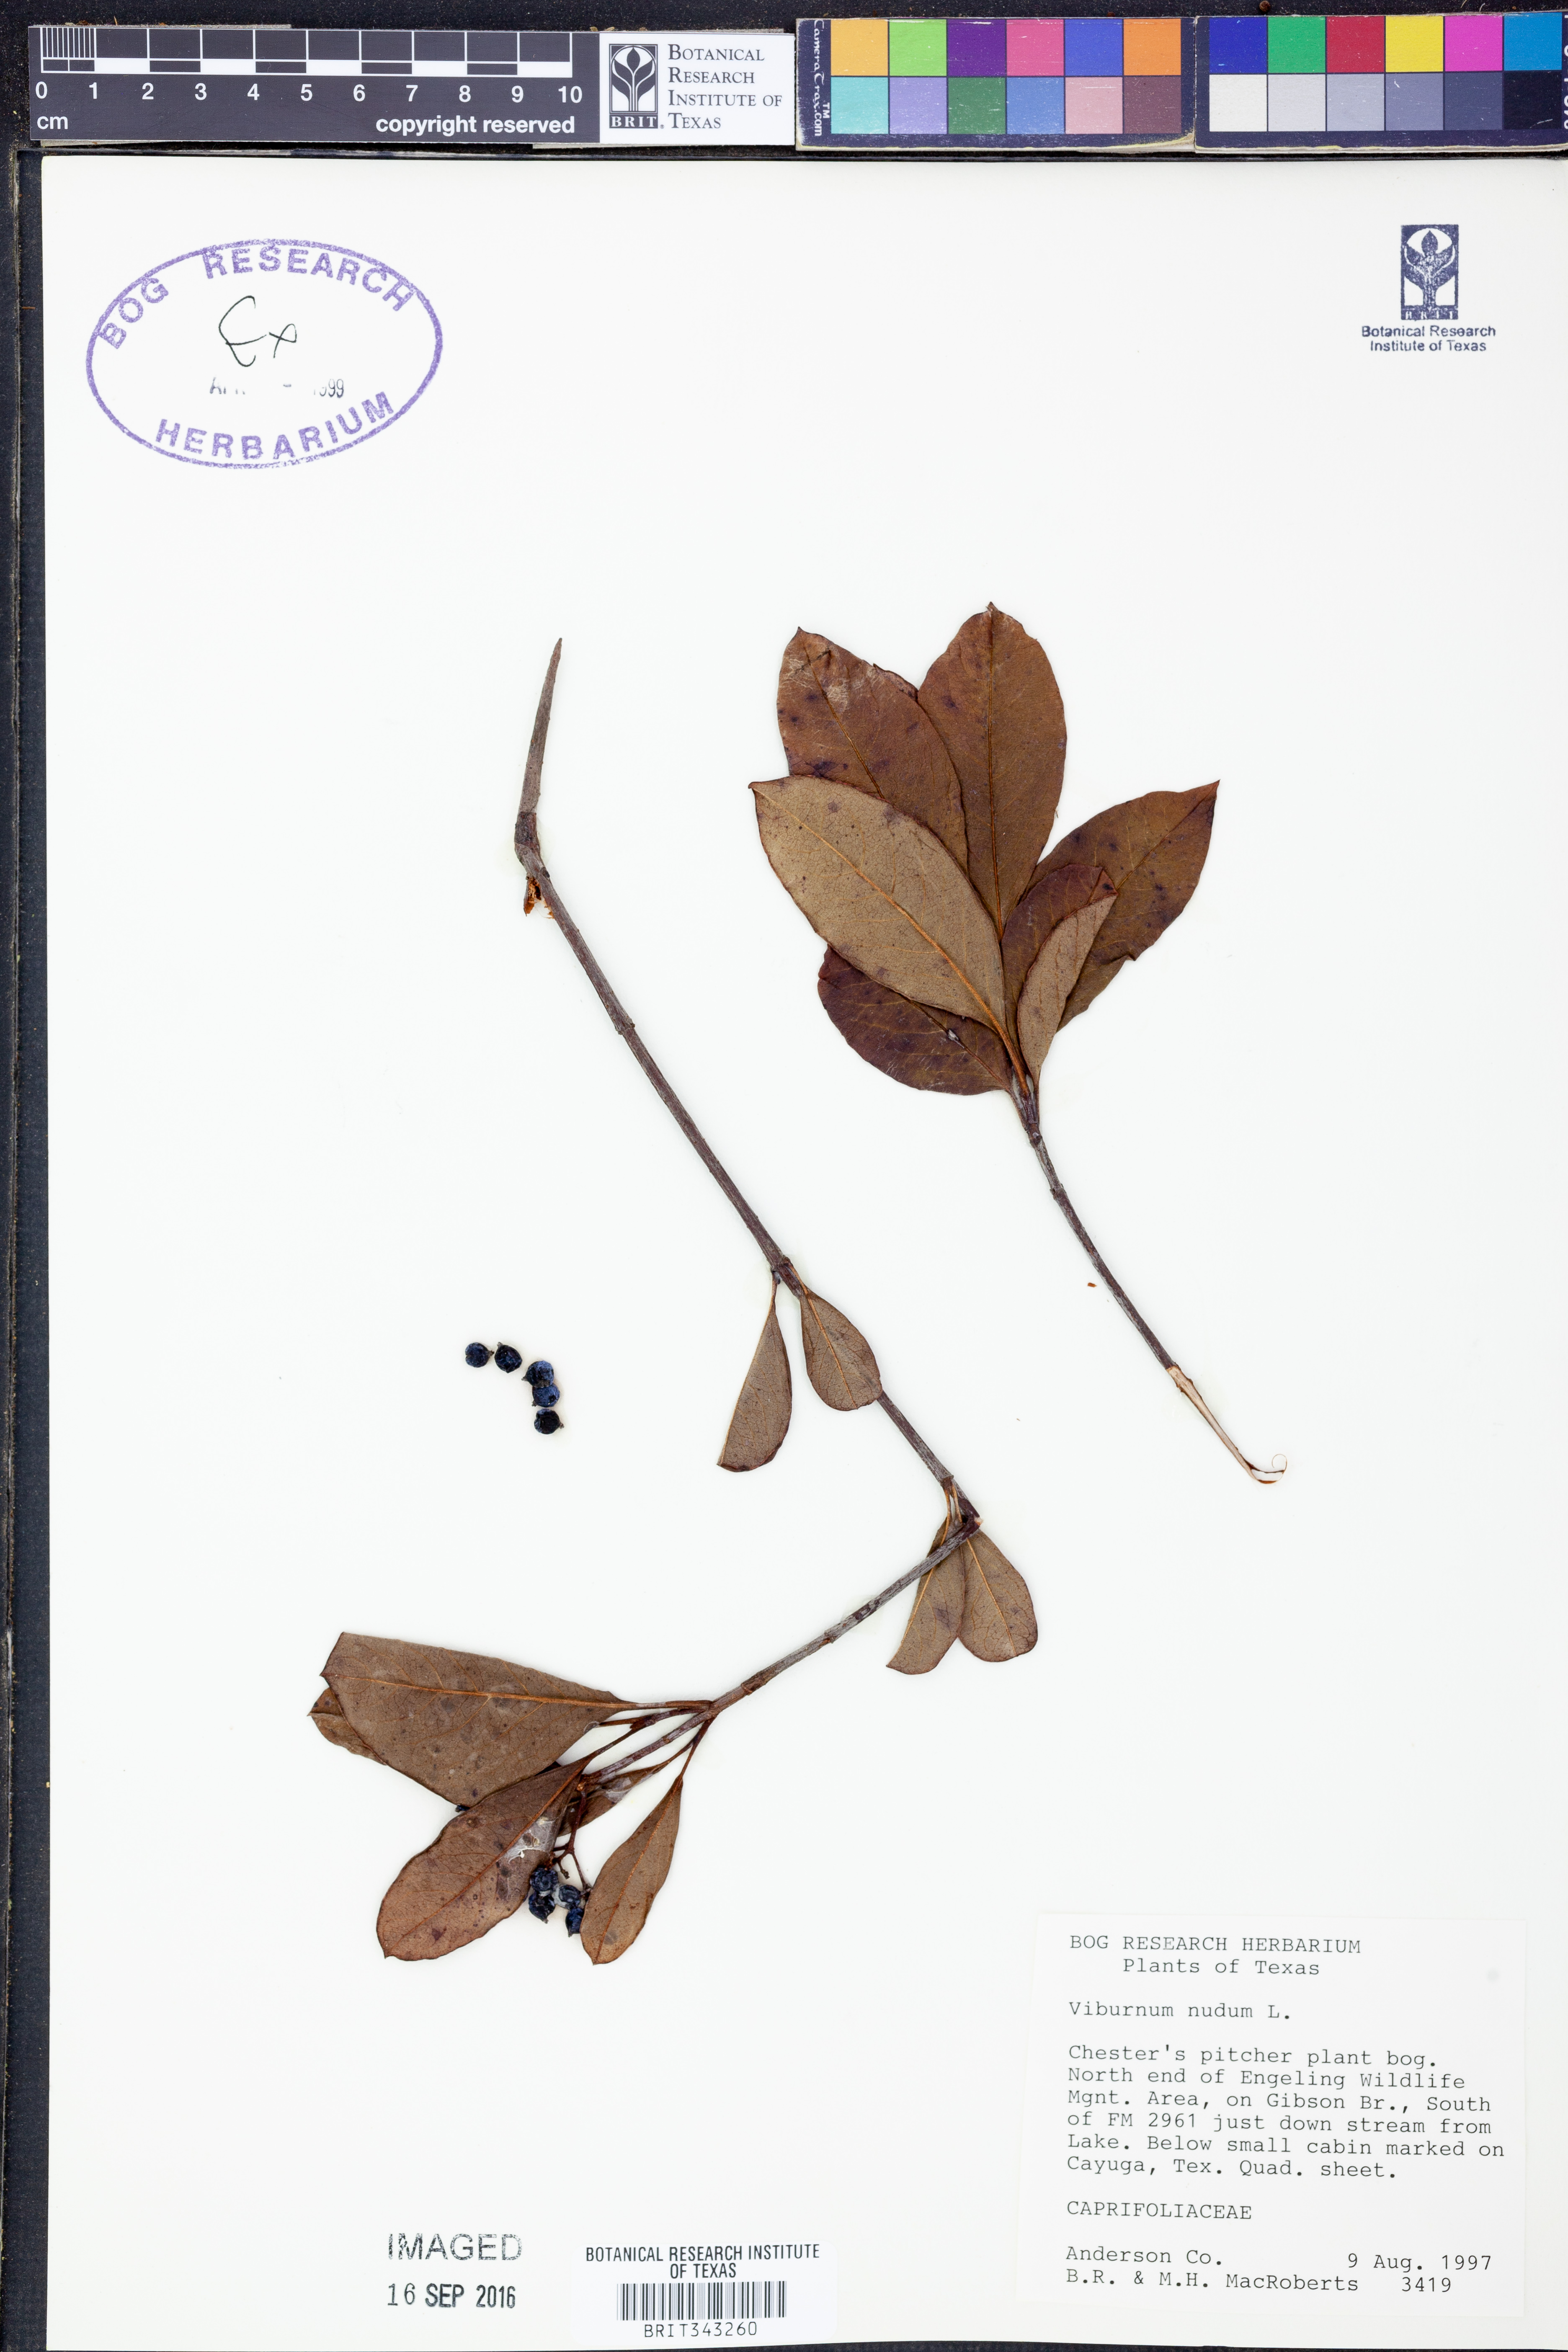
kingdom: Plantae
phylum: Tracheophyta
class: Magnoliopsida
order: Dipsacales
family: Viburnaceae
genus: Viburnum
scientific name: Viburnum nudum
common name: Possum haw
